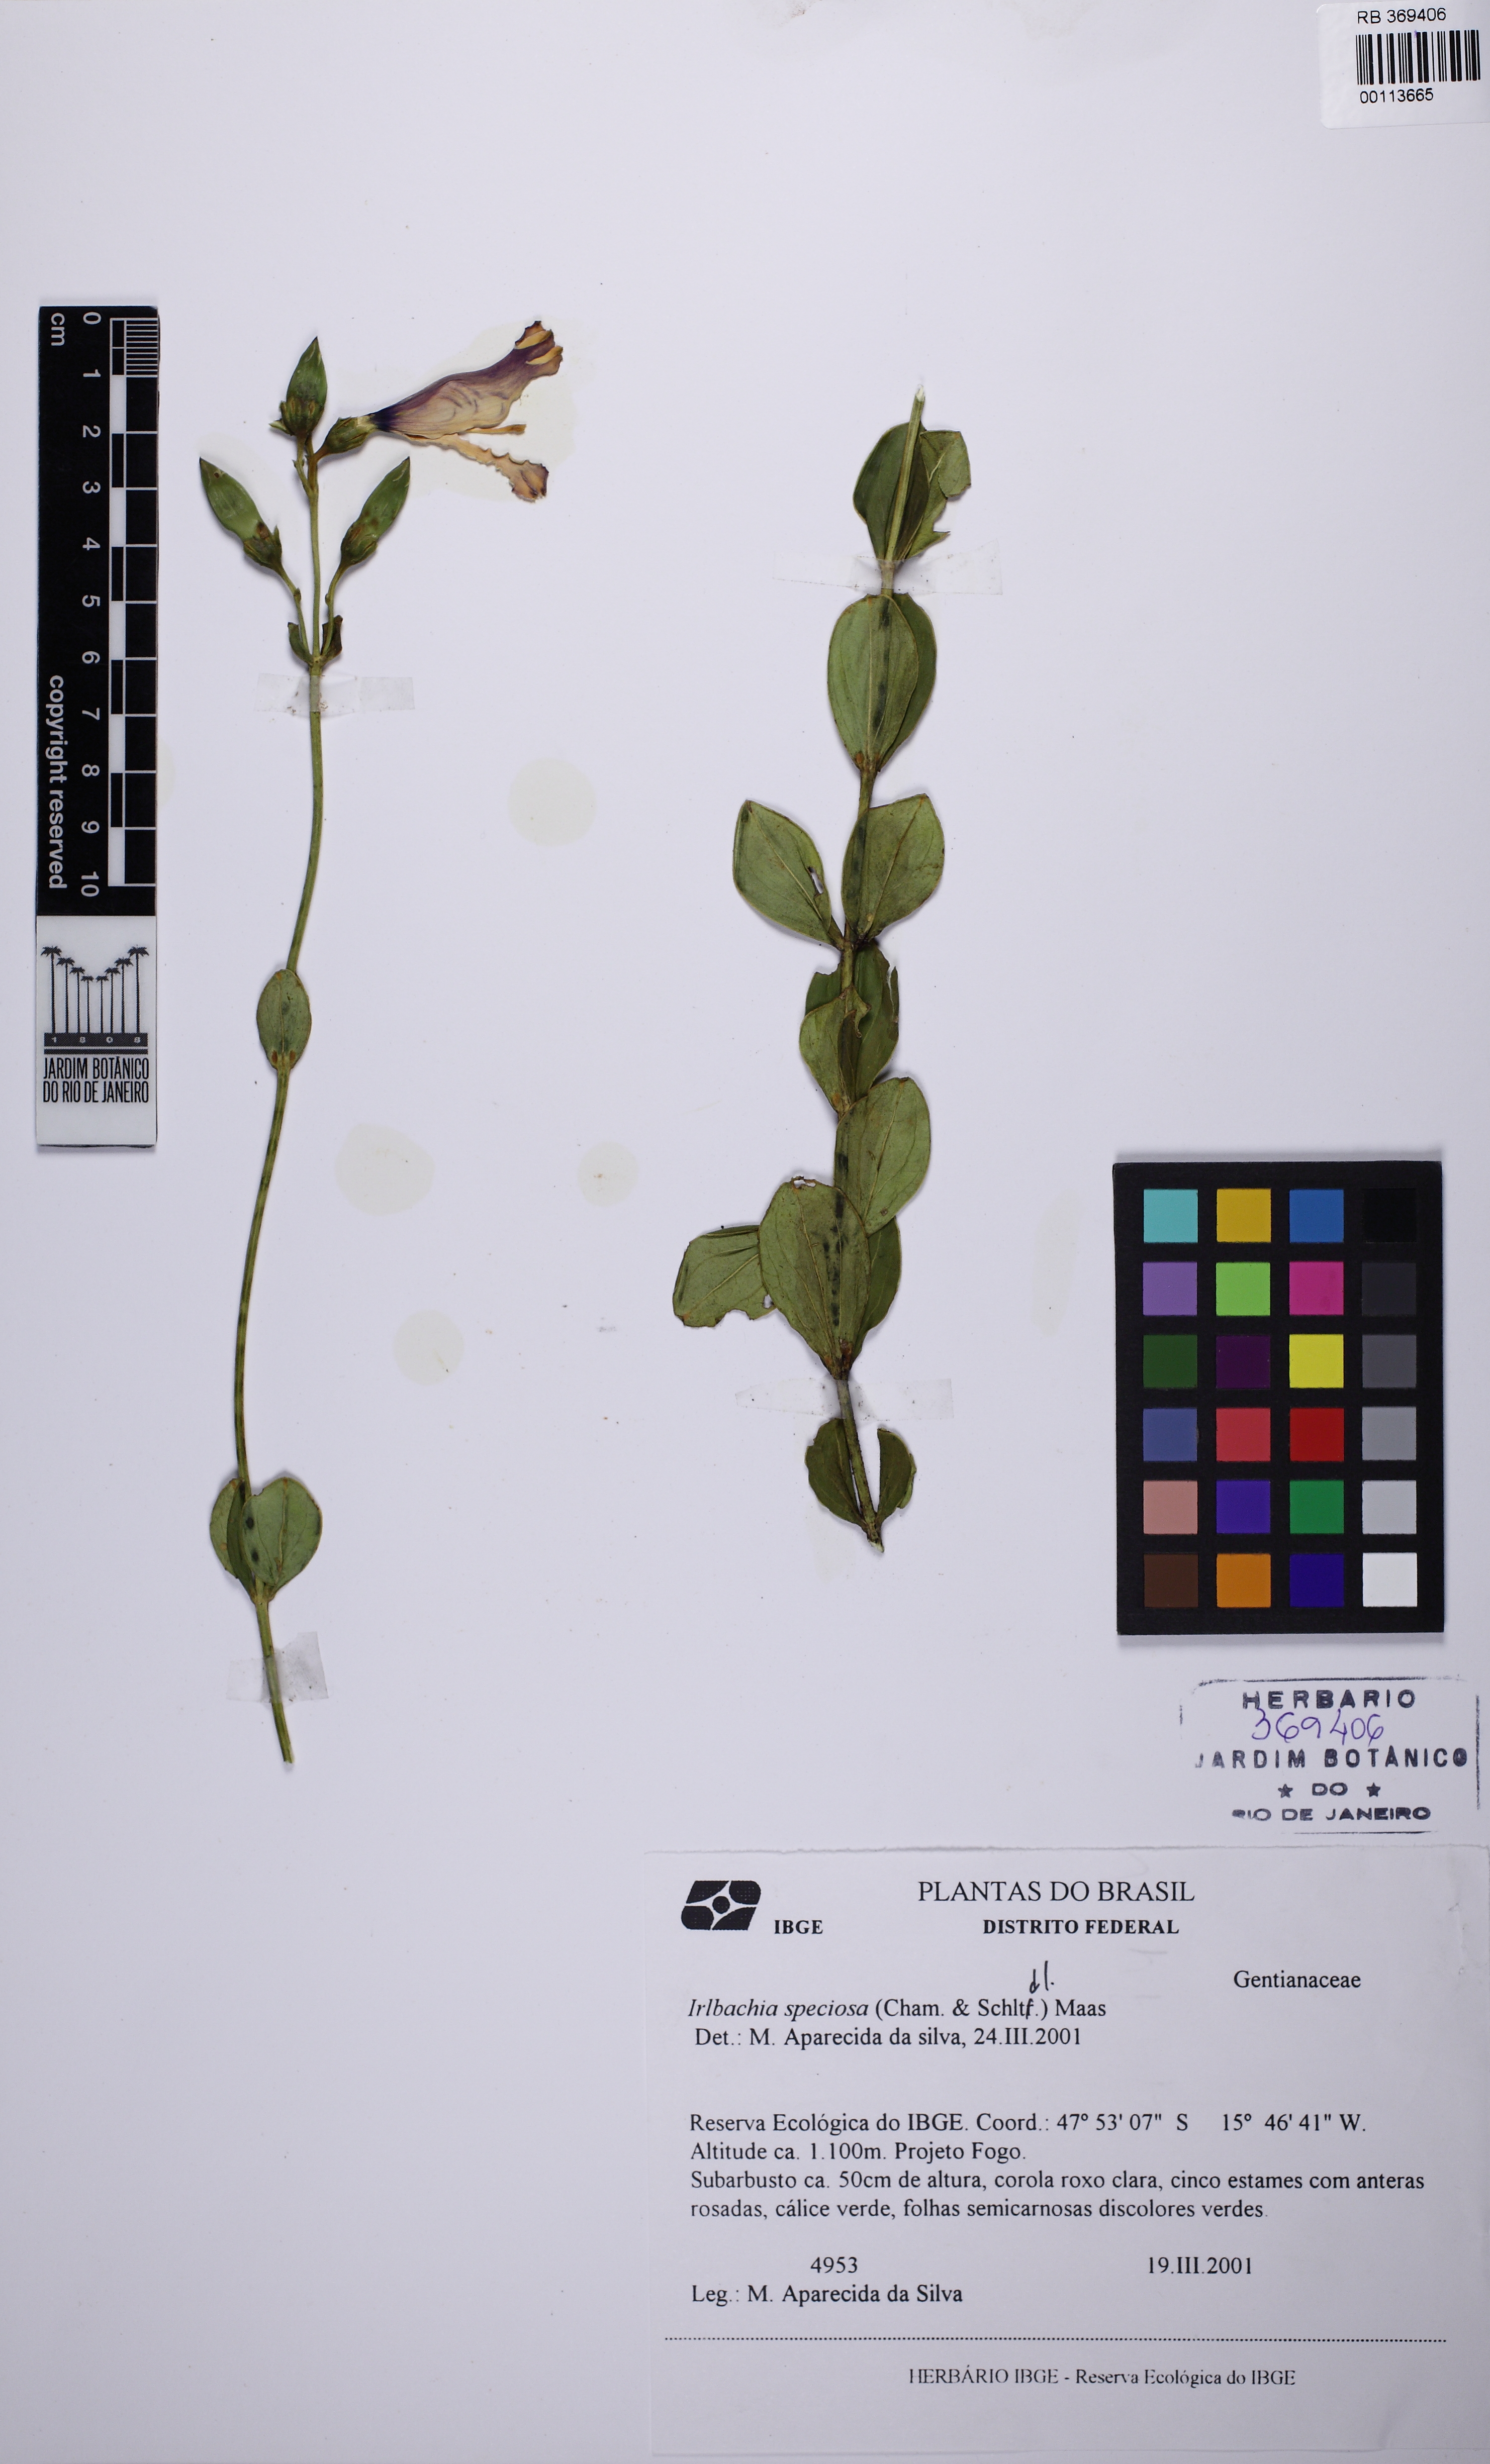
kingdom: Plantae
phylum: Tracheophyta
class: Magnoliopsida
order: Gentianales
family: Gentianaceae
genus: Calolisianthus
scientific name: Calolisianthus speciosus
